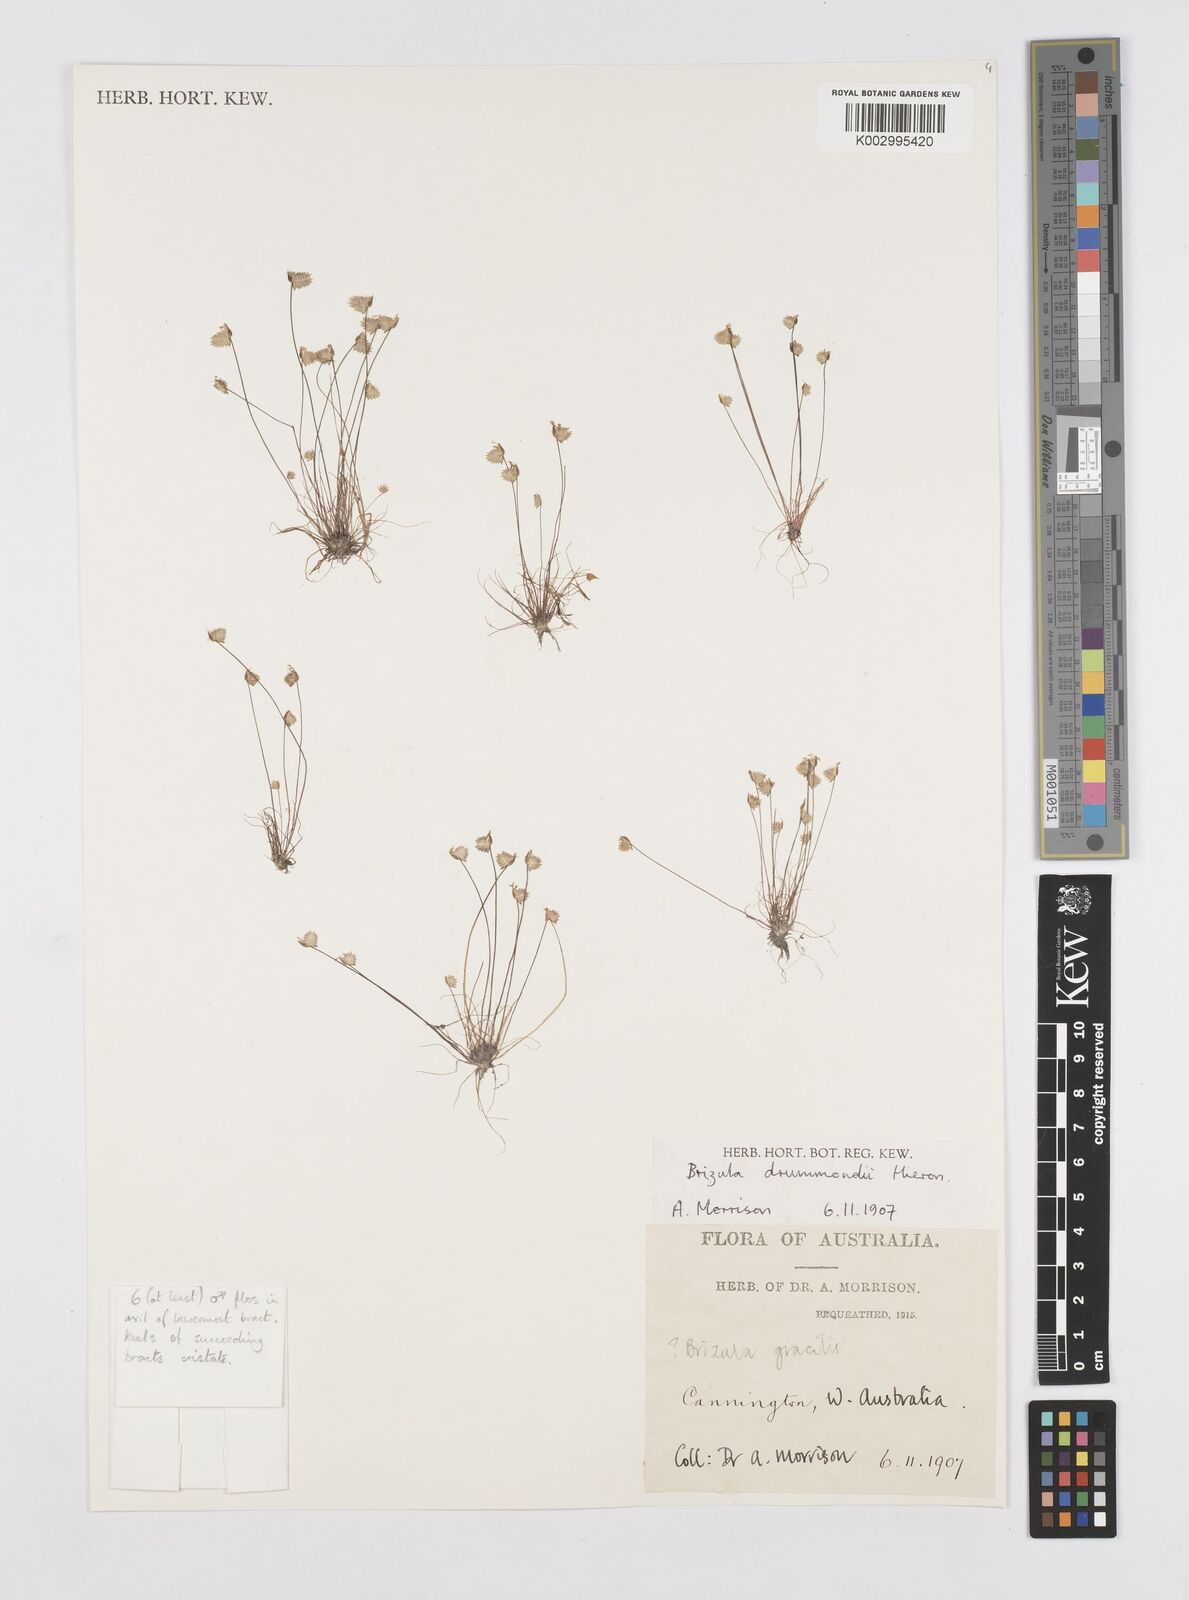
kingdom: Plantae
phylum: Tracheophyta
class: Liliopsida
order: Poales
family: Restionaceae
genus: Aphelia
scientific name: Aphelia drummondii
